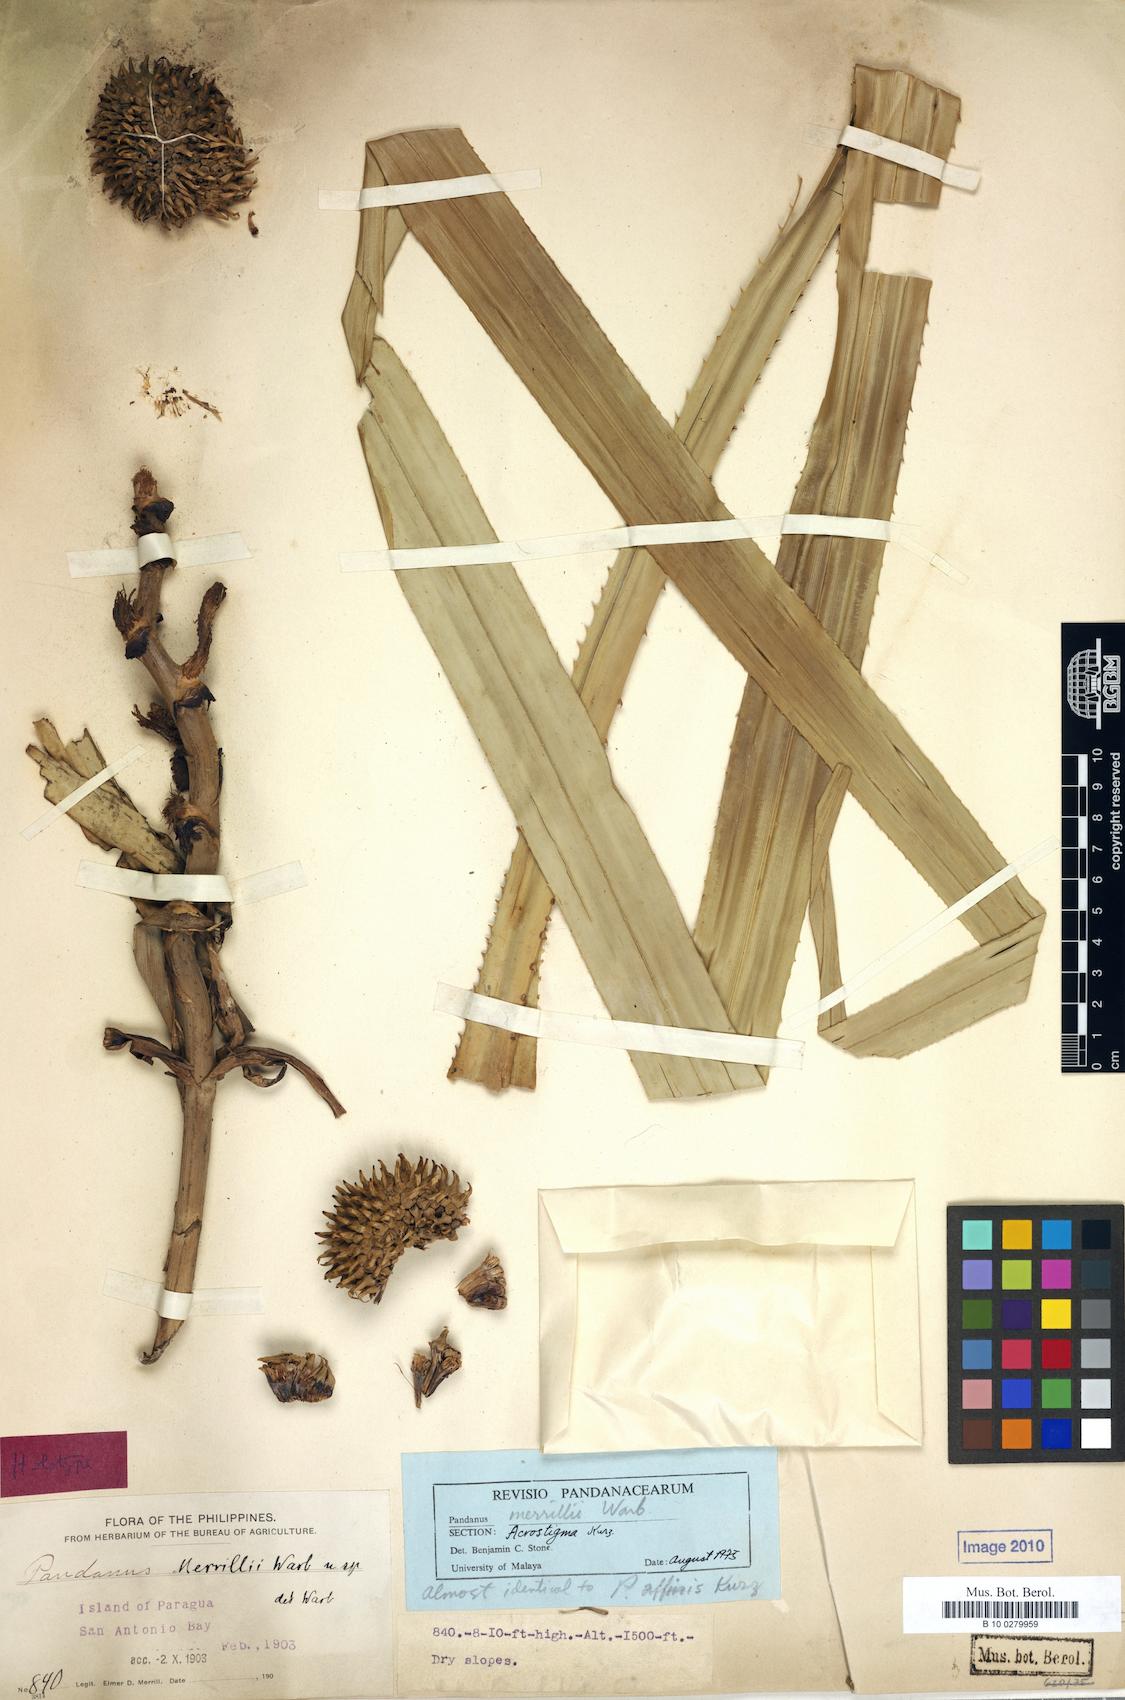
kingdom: Plantae
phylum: Tracheophyta
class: Liliopsida
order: Pandanales
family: Pandanaceae
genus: Benstonea
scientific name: Benstonea affinis
